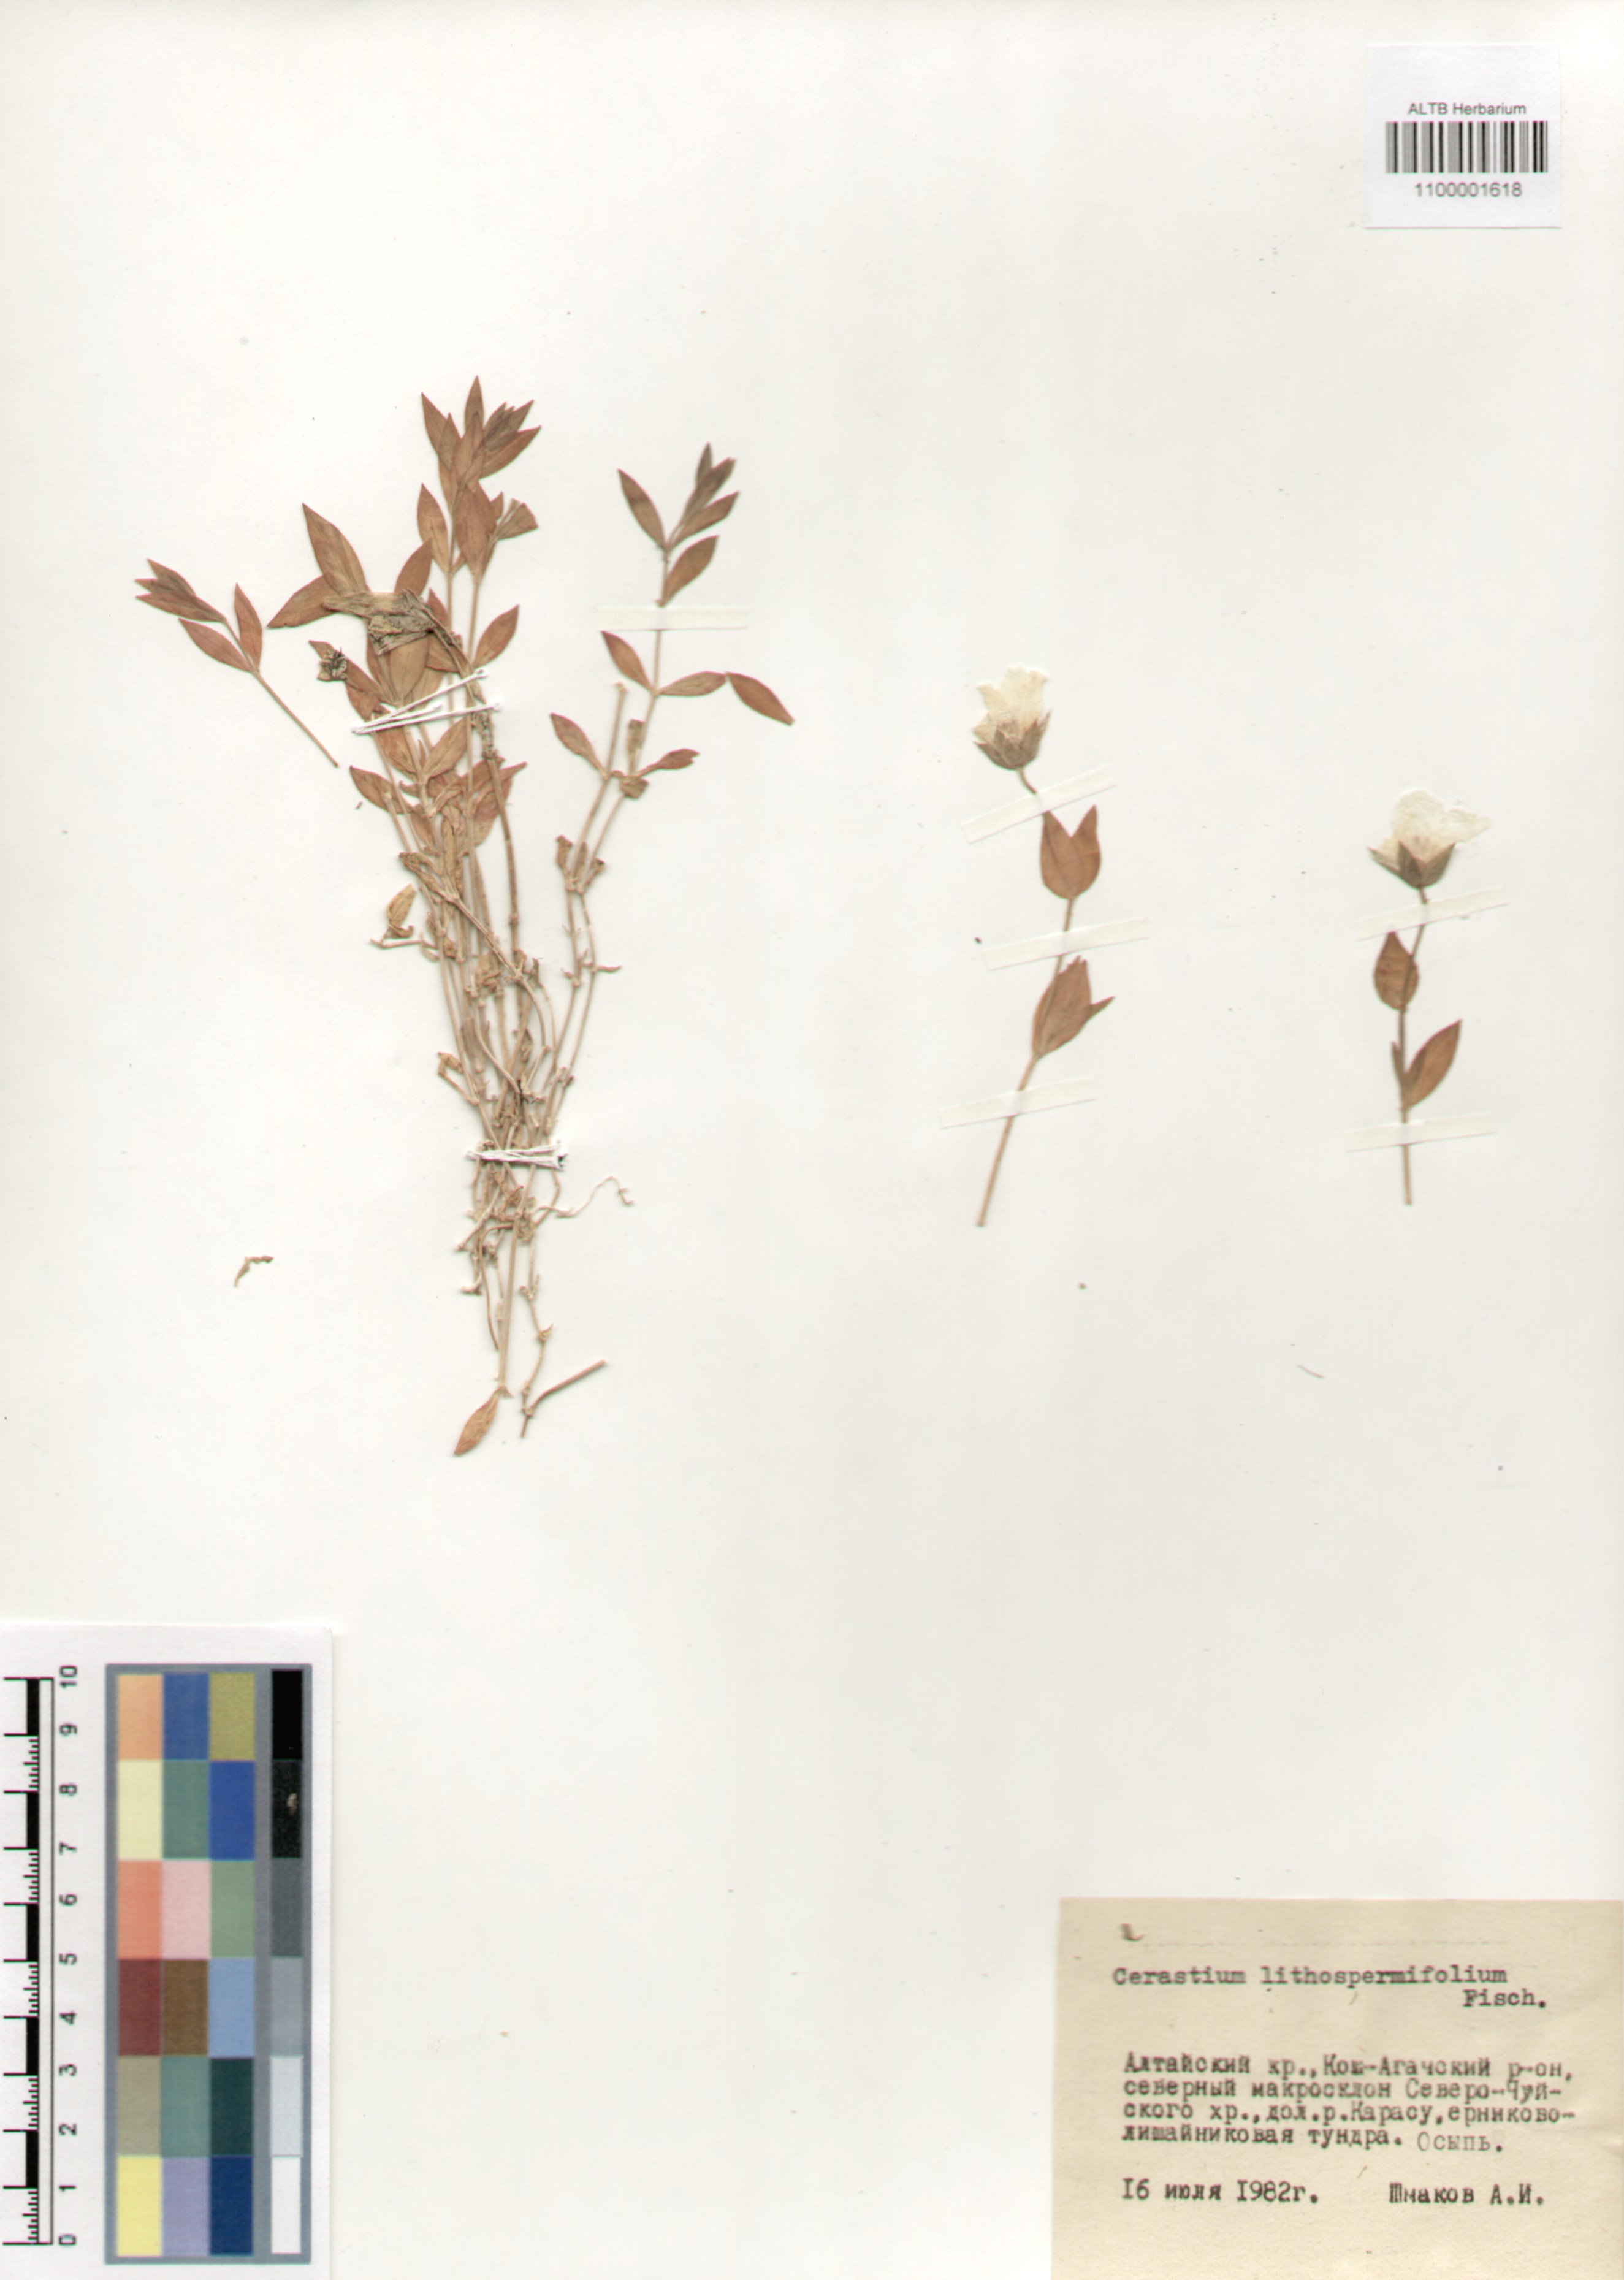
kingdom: Plantae
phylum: Tracheophyta
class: Magnoliopsida
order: Caryophyllales
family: Caryophyllaceae
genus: Cerastium
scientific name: Cerastium lithospermifolium
